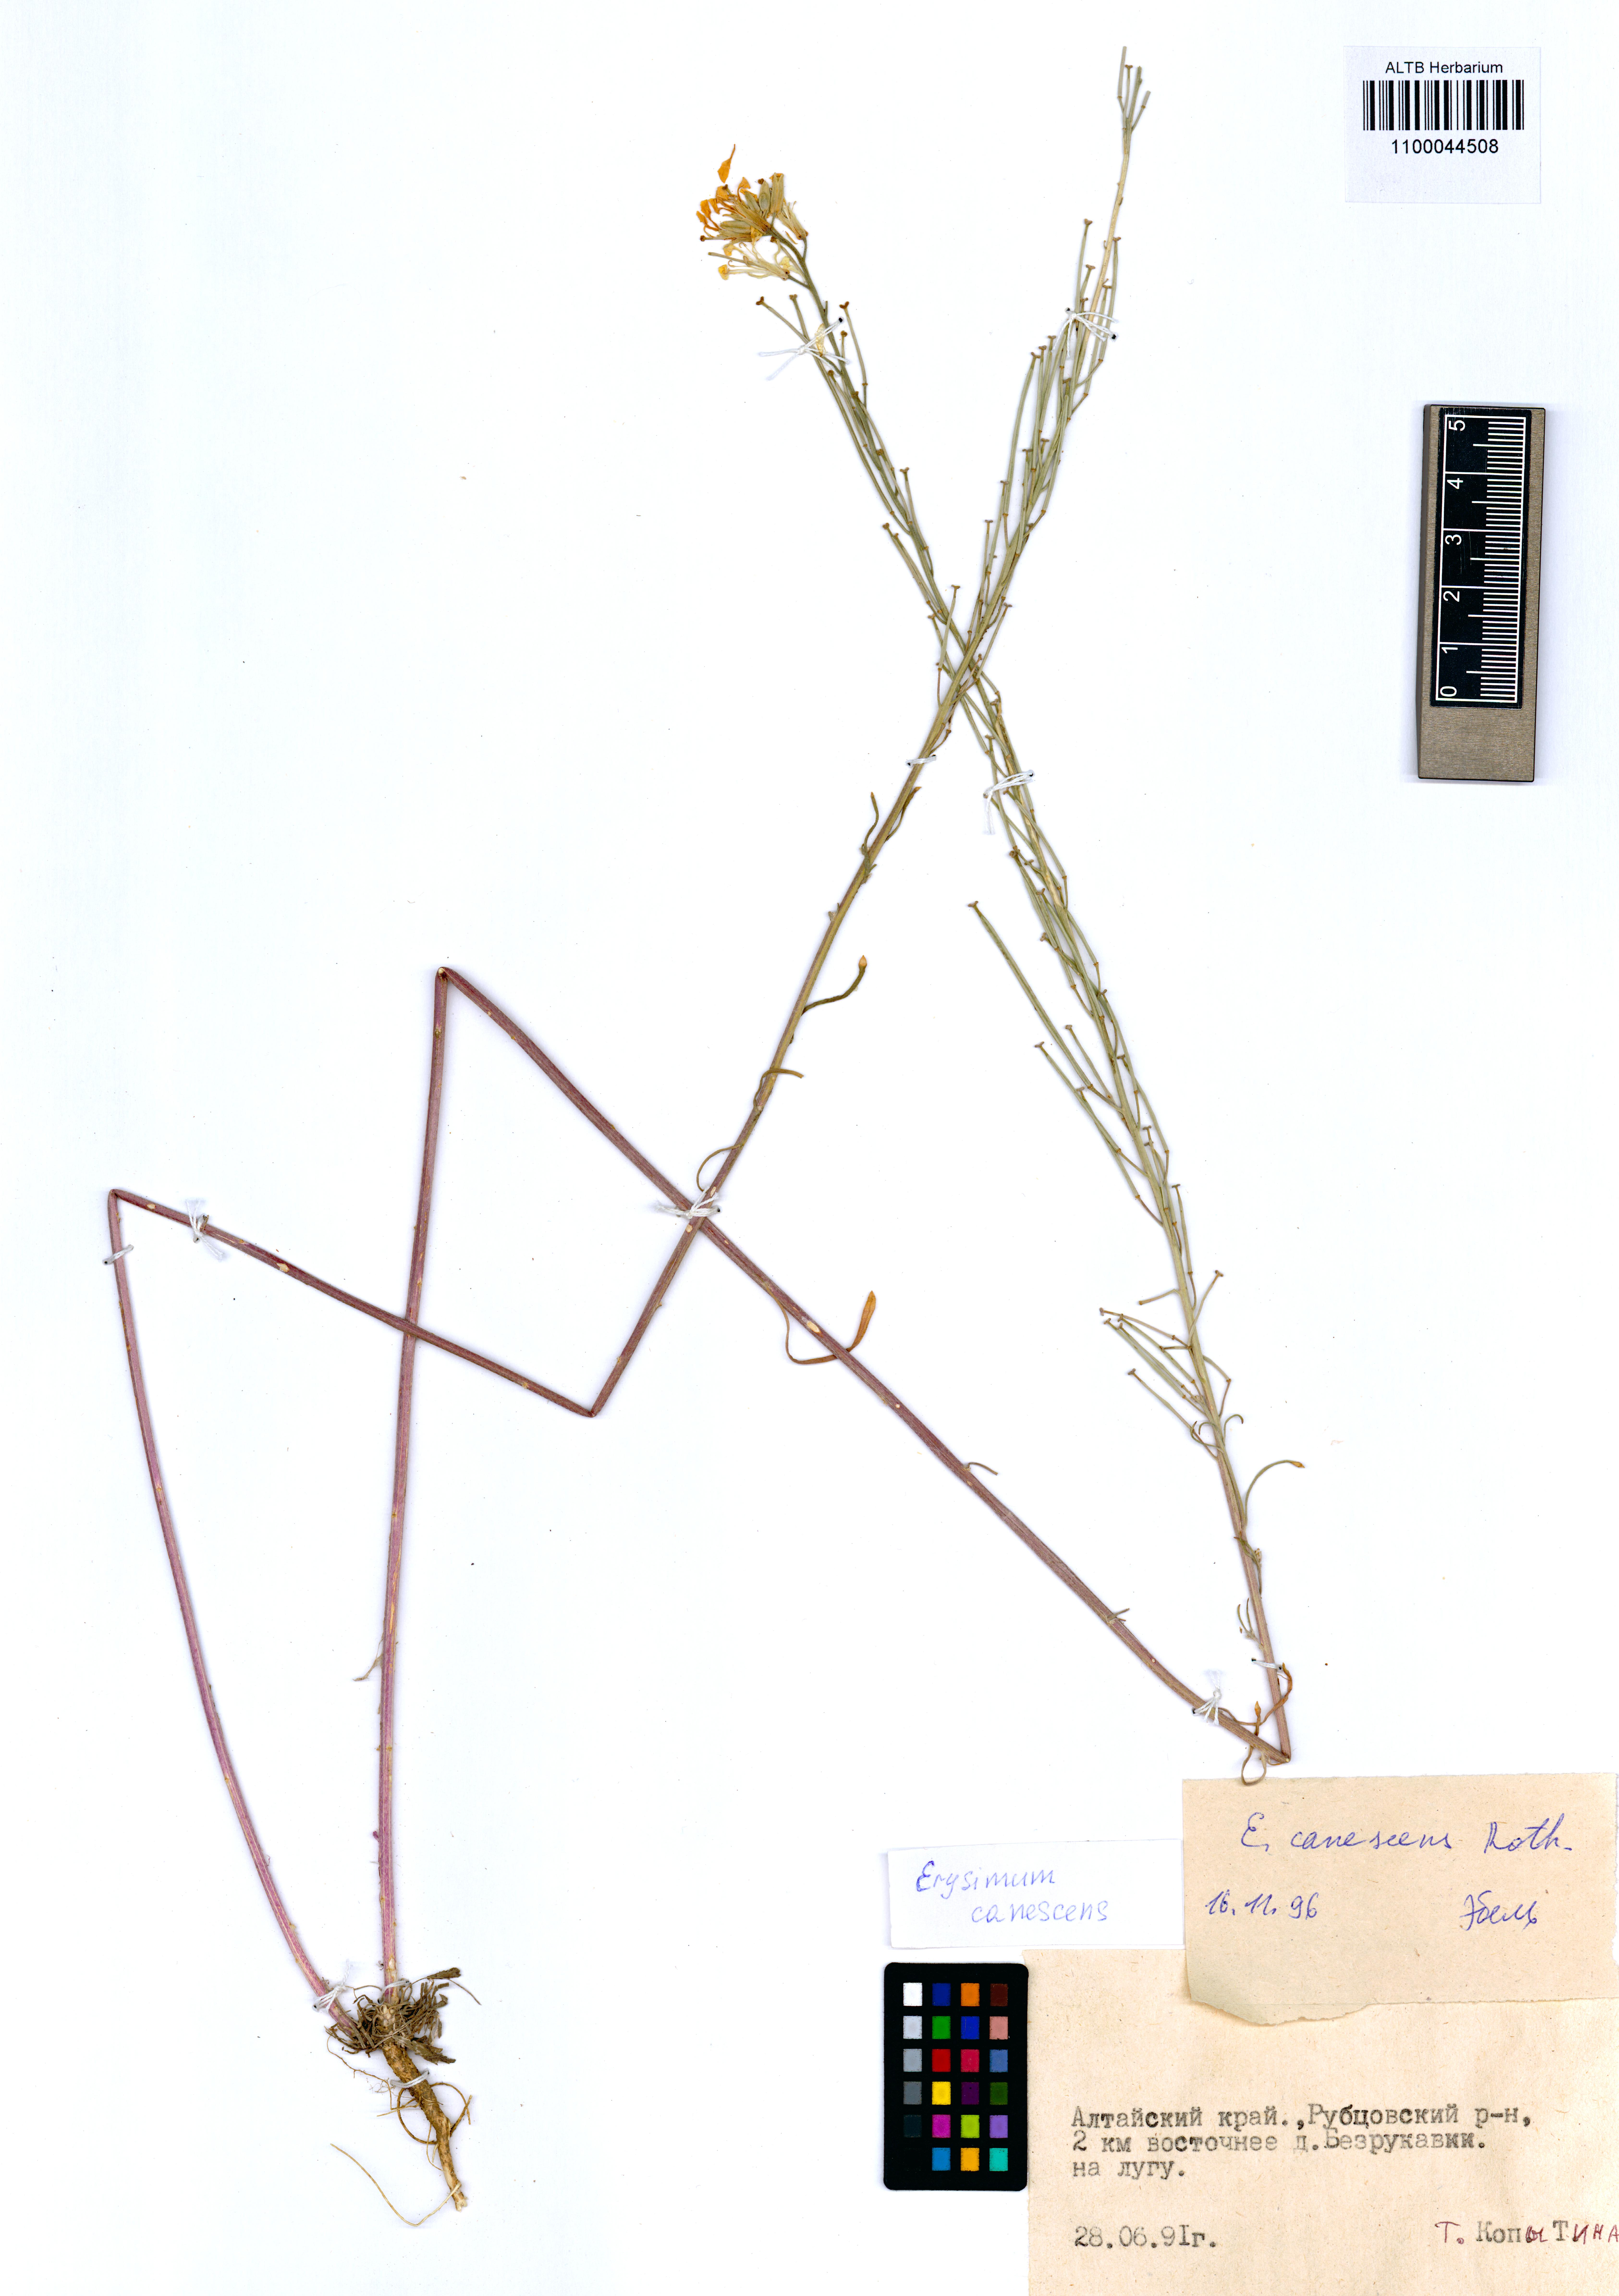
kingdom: Plantae
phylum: Tracheophyta
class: Magnoliopsida
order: Brassicales
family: Brassicaceae
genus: Erysimum
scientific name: Erysimum canescens
